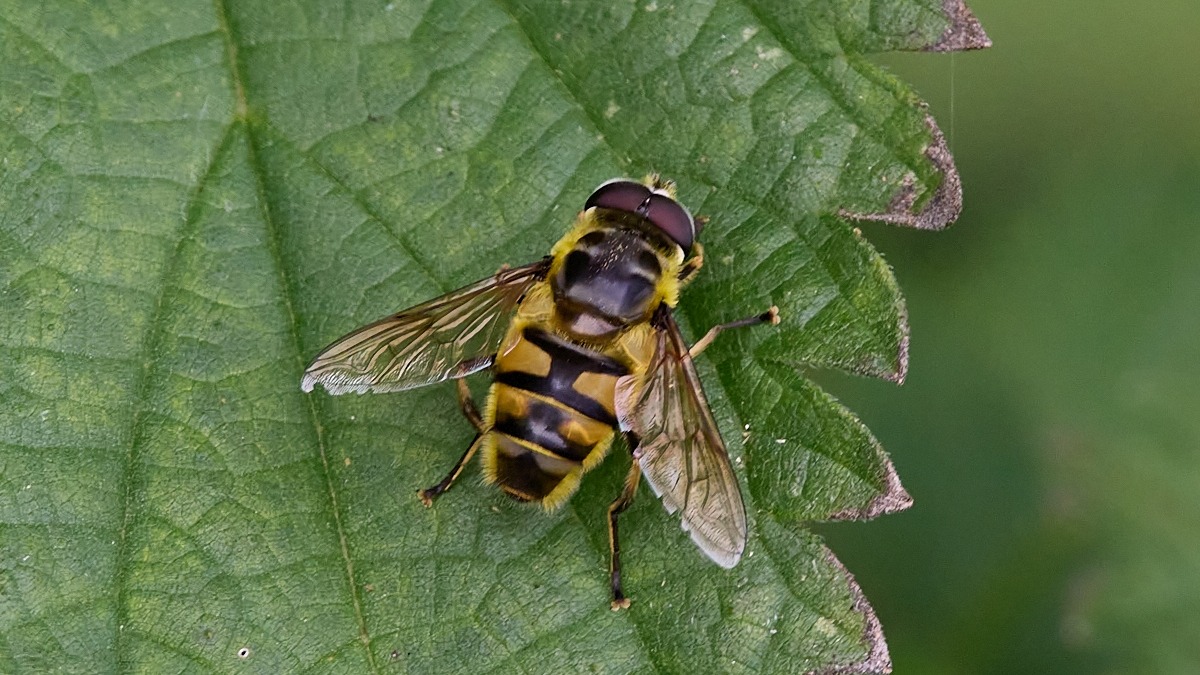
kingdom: Animalia
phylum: Arthropoda
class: Insecta
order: Diptera
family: Syrphidae
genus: Myathropa
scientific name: Myathropa florea
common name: Dødningehoved-svirreflue
